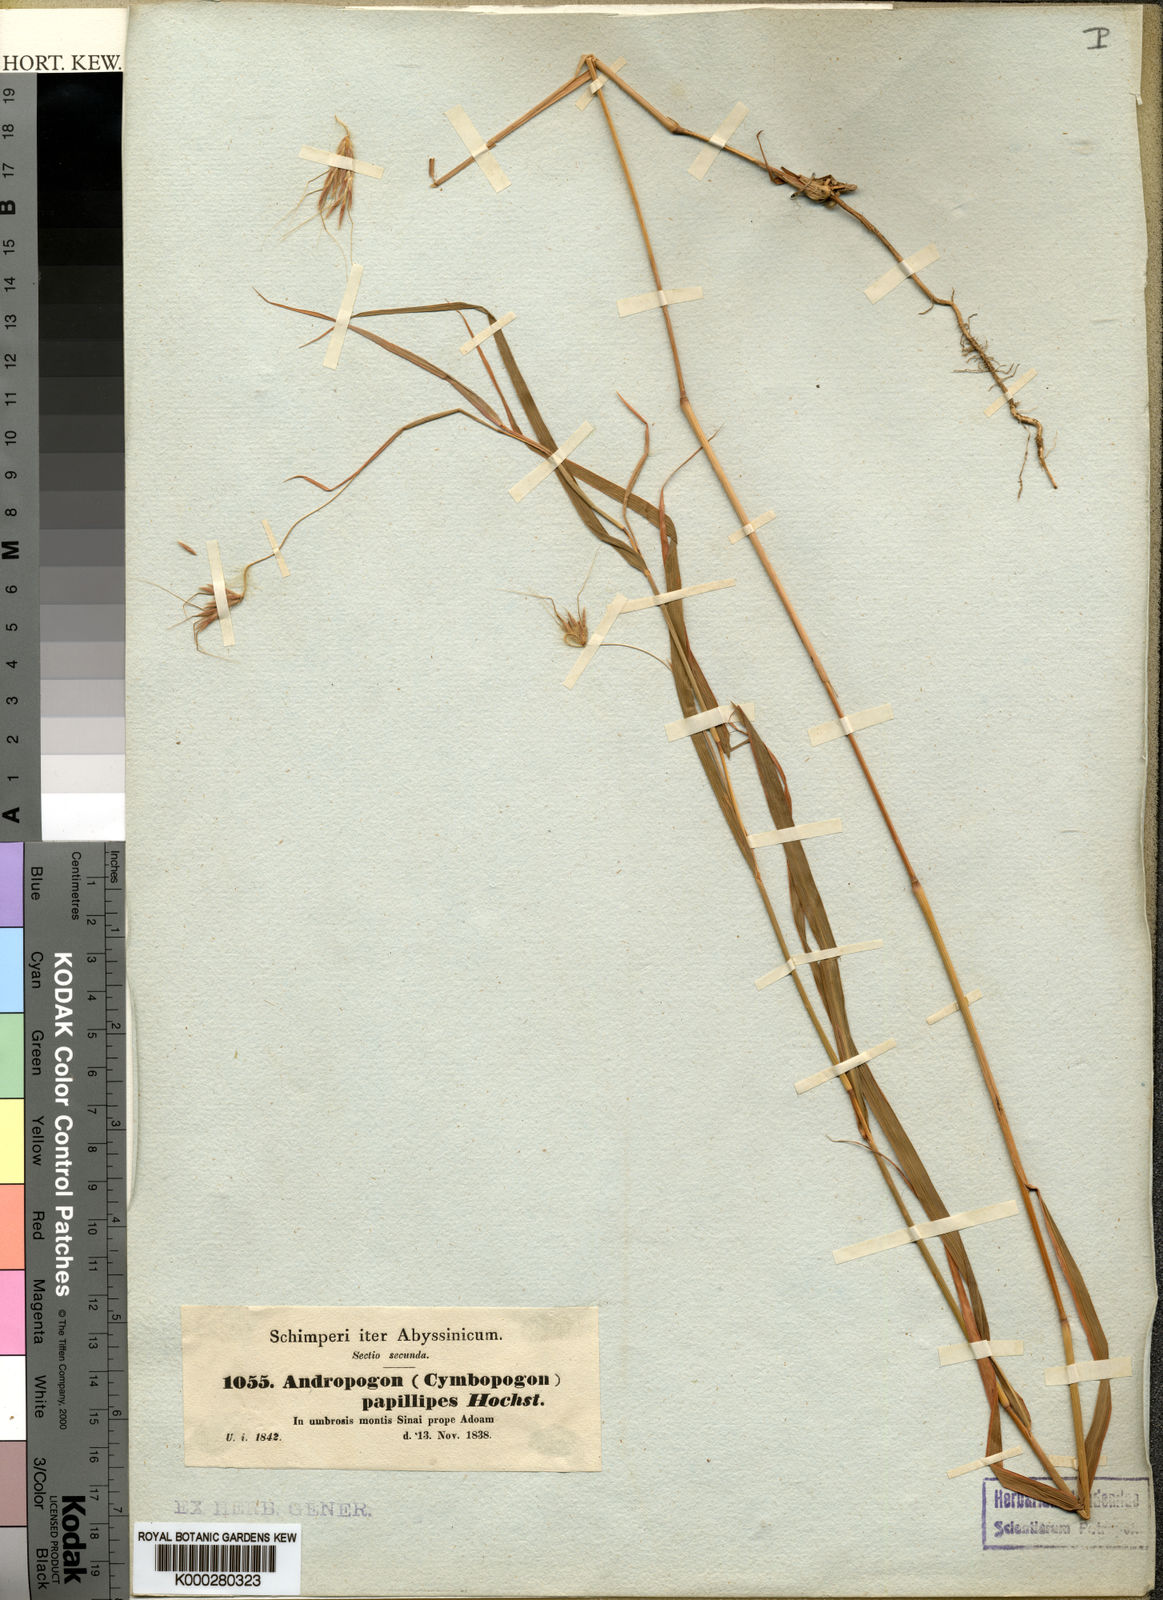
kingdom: Plantae
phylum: Tracheophyta
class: Liliopsida
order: Poales
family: Poaceae
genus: Hyparrhenia
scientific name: Hyparrhenia
